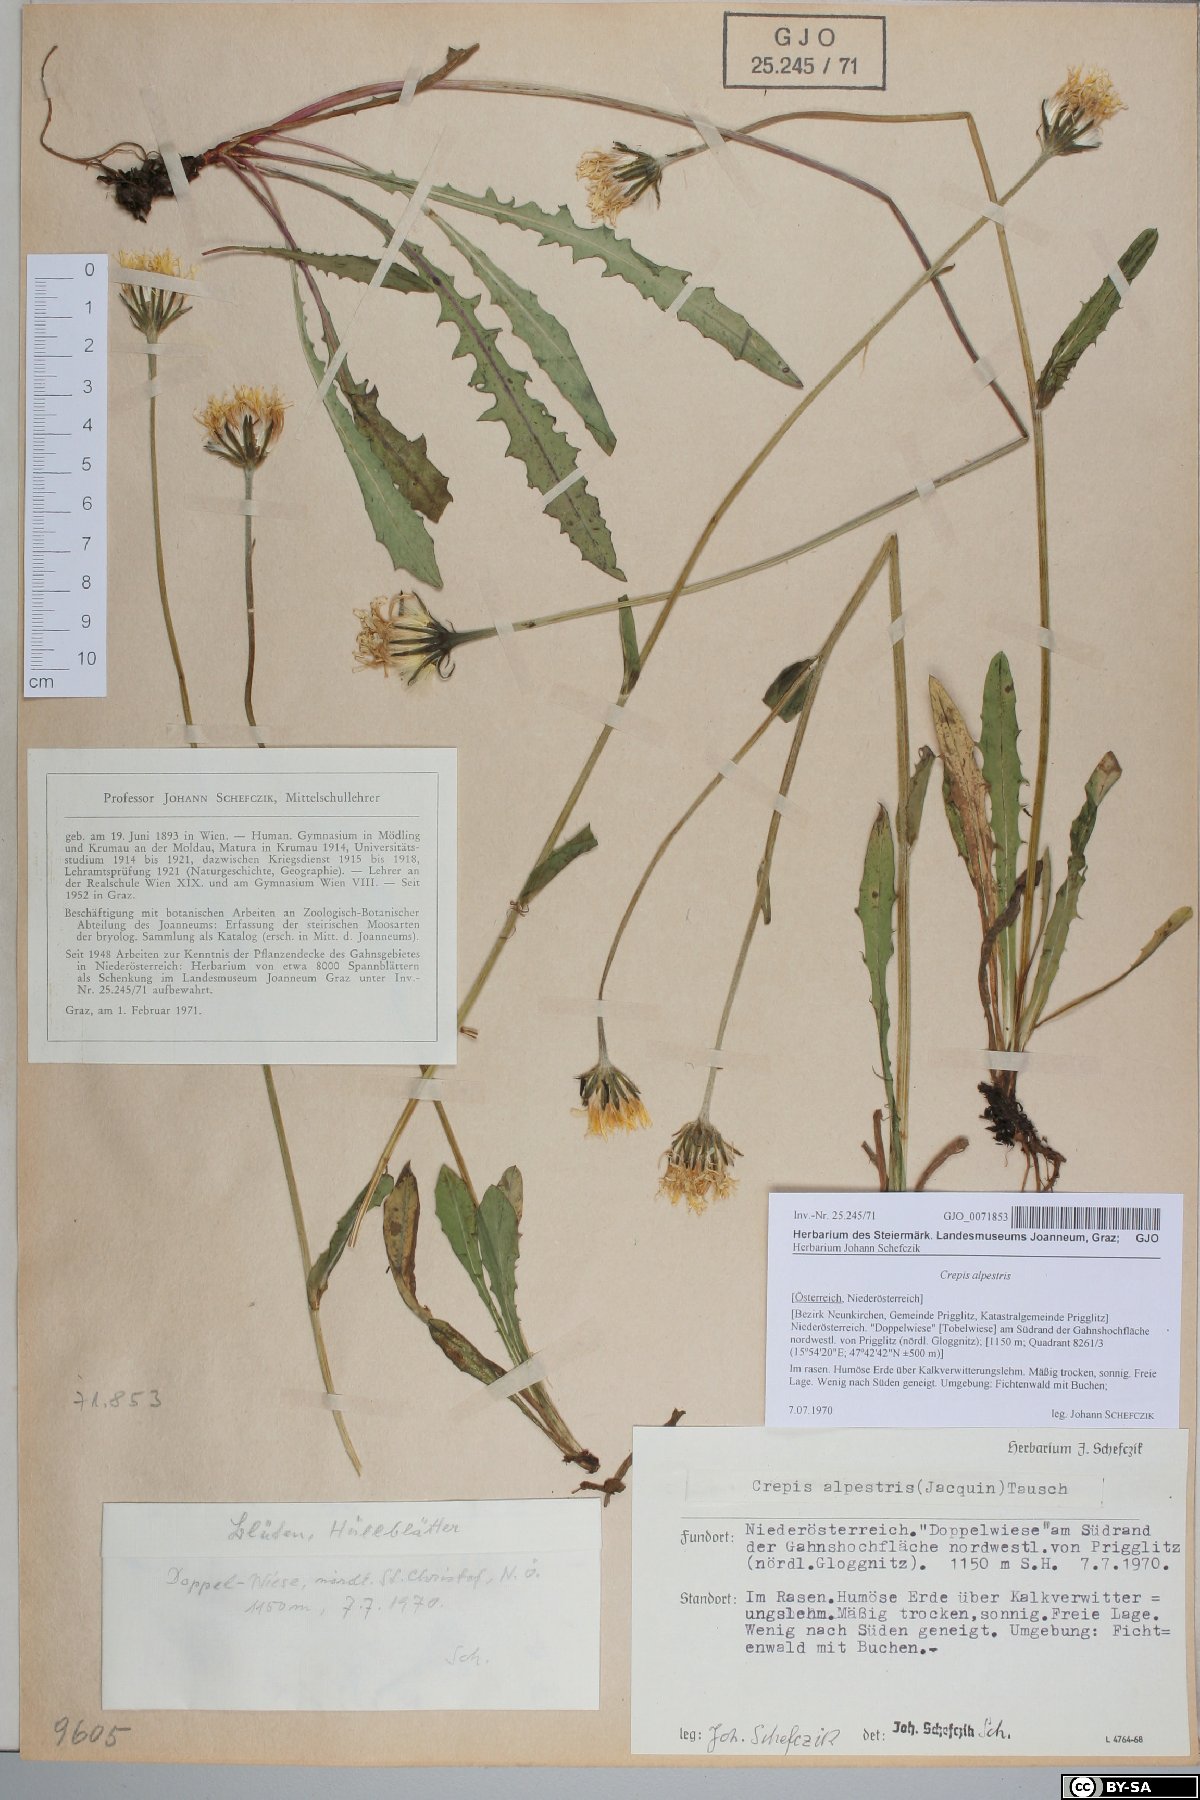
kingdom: Plantae
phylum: Tracheophyta
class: Magnoliopsida
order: Asterales
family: Asteraceae
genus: Crepis
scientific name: Crepis alpestris
